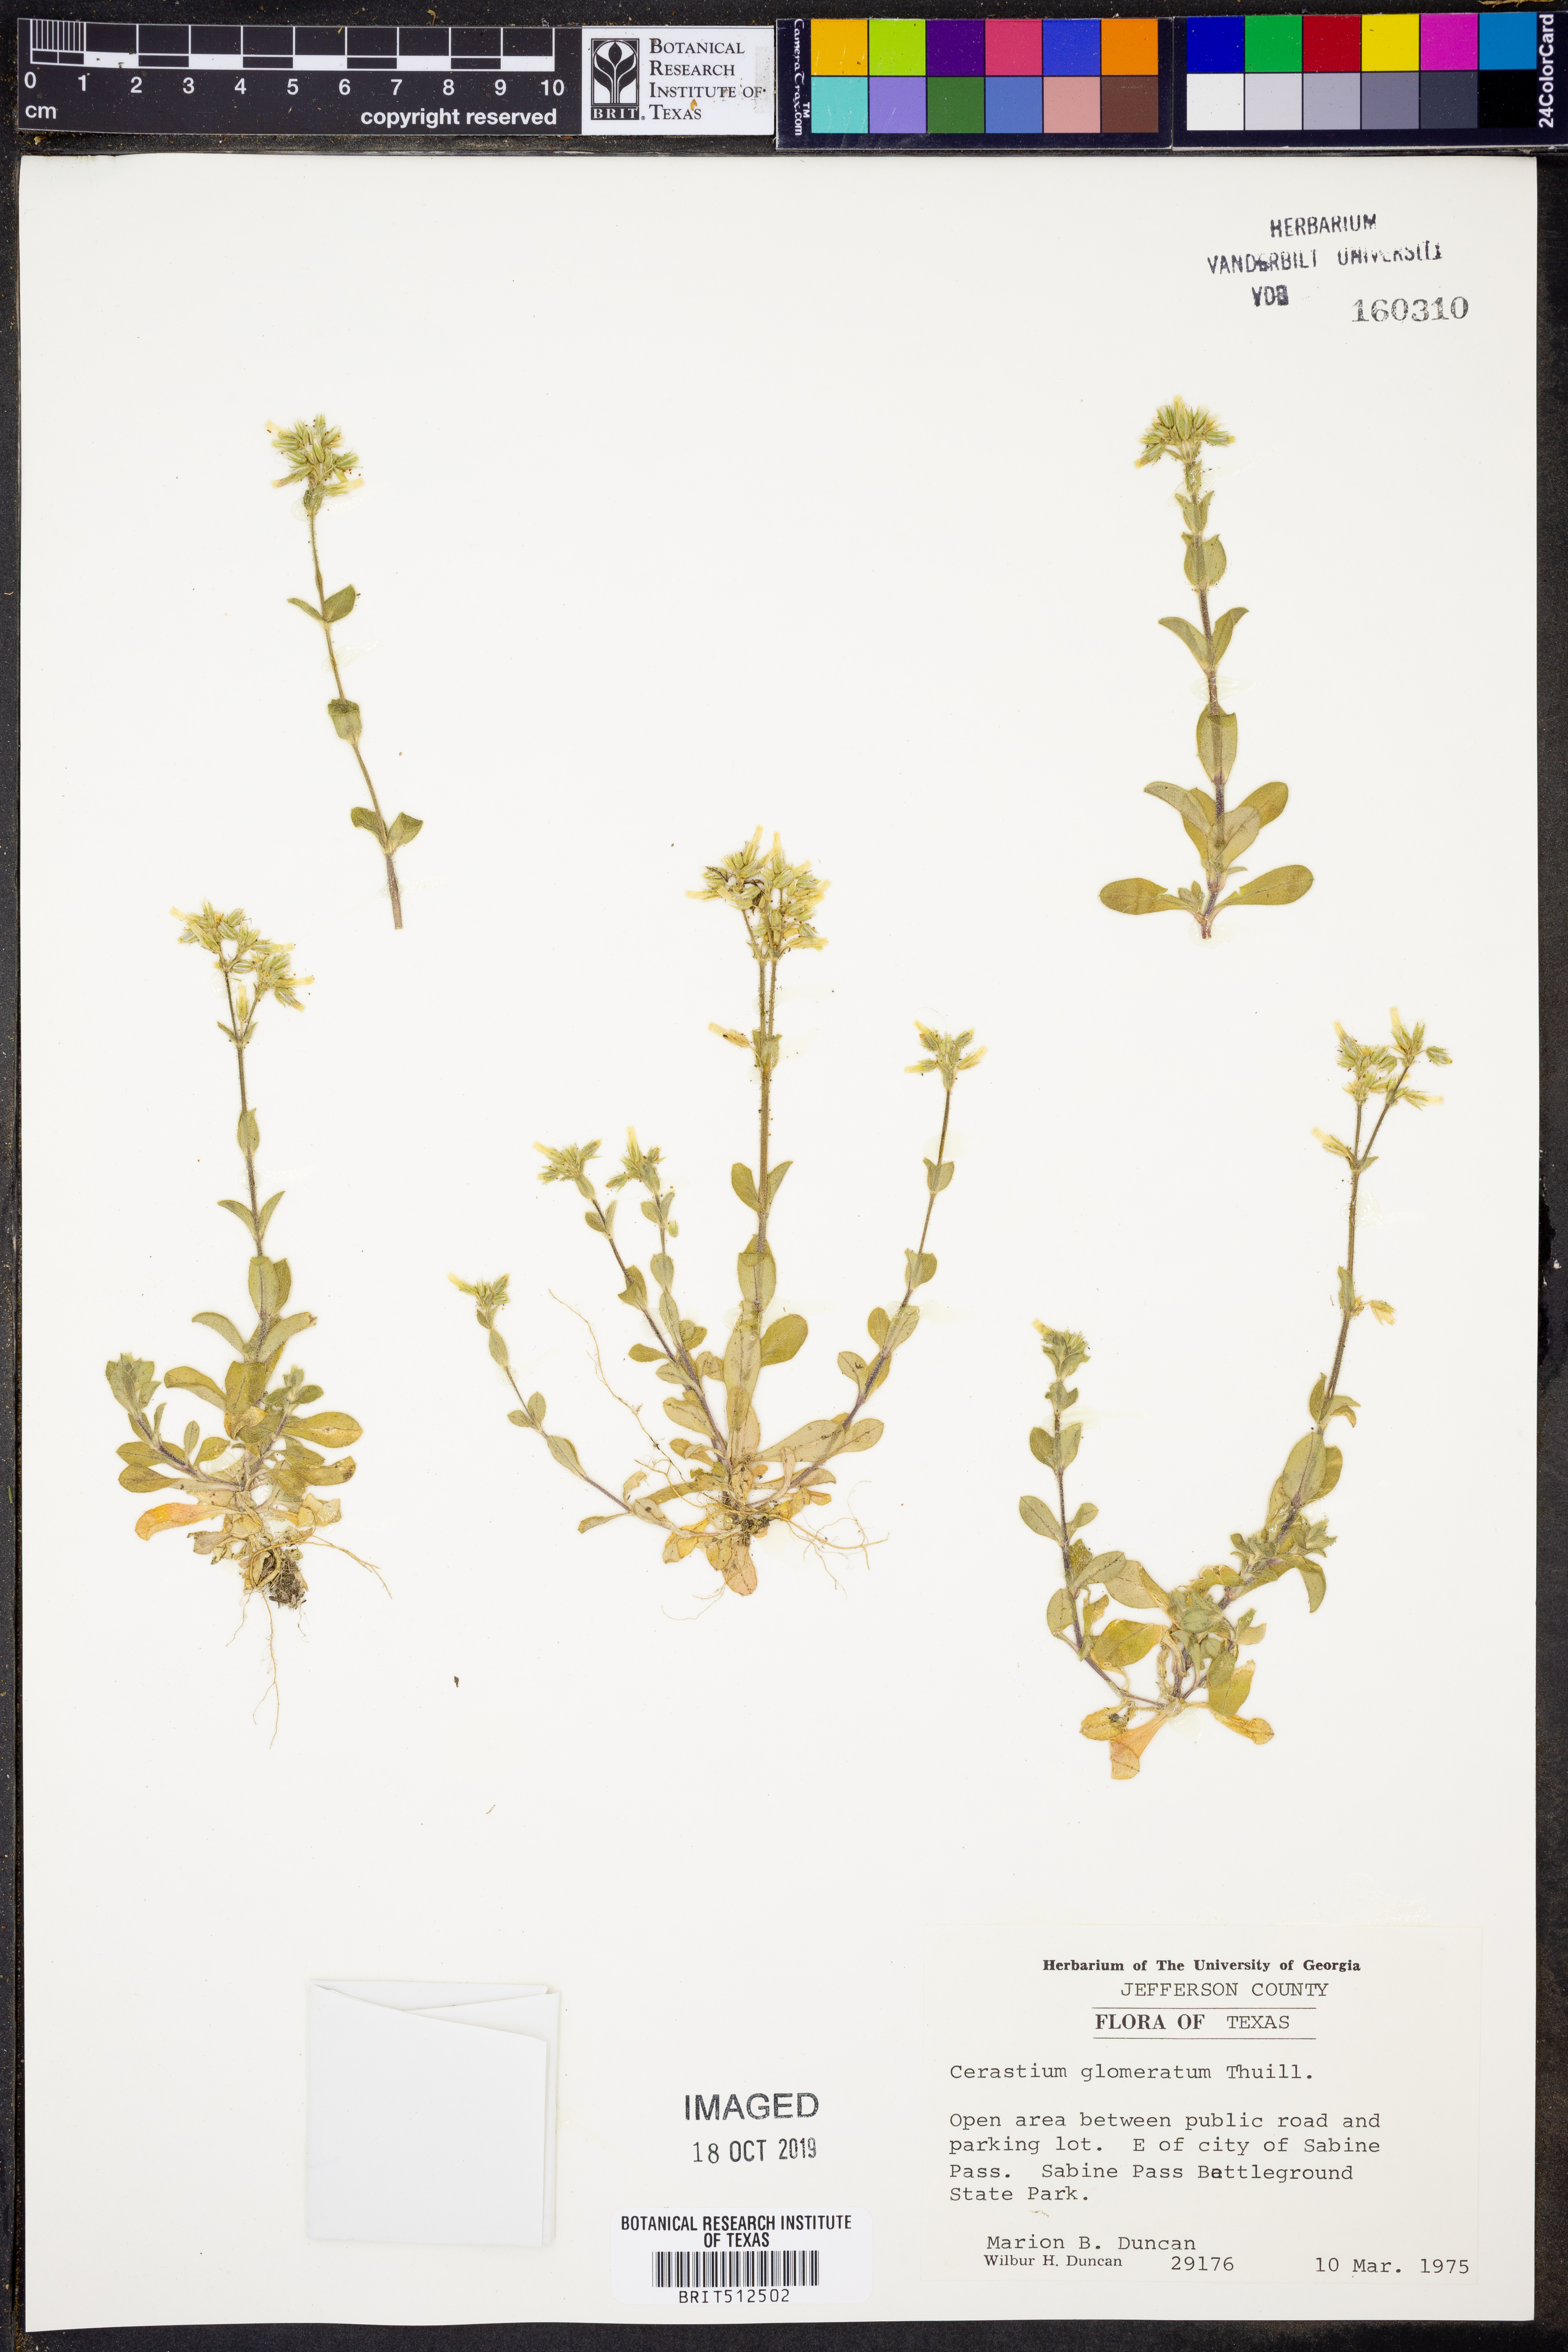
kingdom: Plantae
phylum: Tracheophyta
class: Magnoliopsida
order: Caryophyllales
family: Caryophyllaceae
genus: Cerastium
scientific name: Cerastium glomeratum
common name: Sticky chickweed
